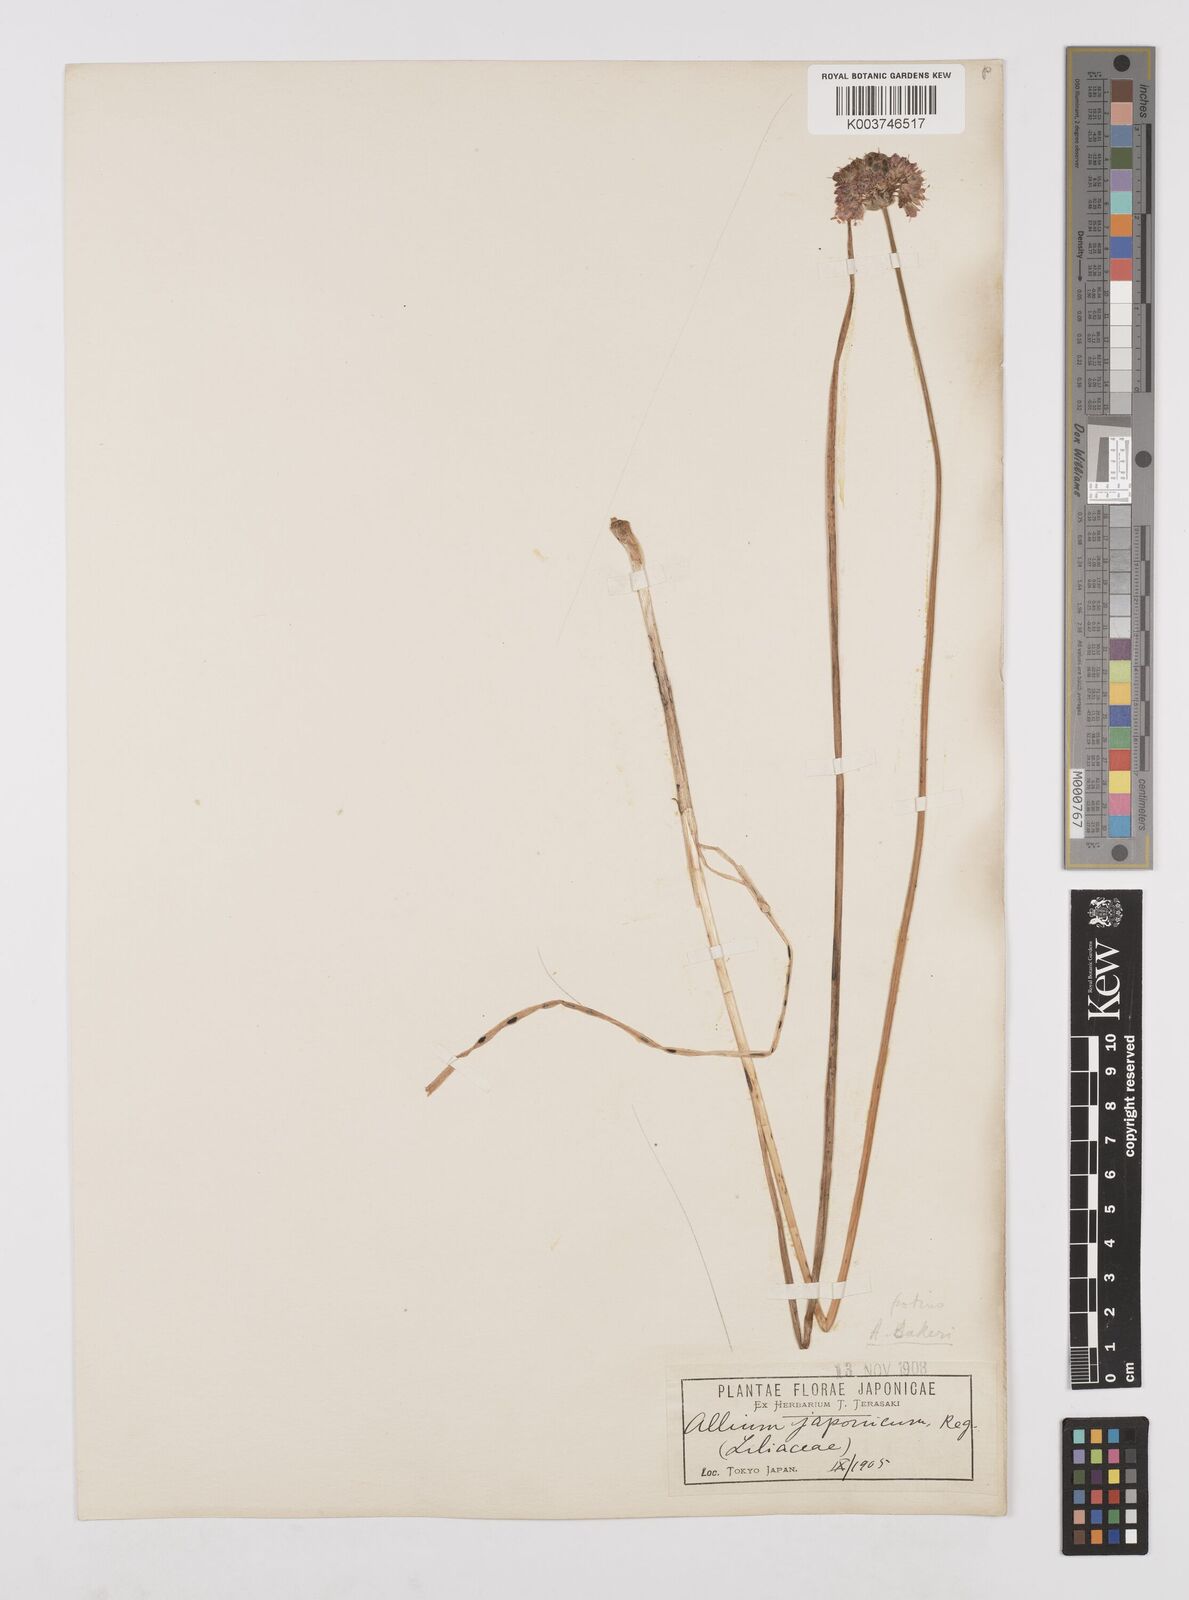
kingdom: Plantae
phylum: Tracheophyta
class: Liliopsida
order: Asparagales
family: Amaryllidaceae
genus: Allium
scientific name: Allium chinense
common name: Japanese scallion
